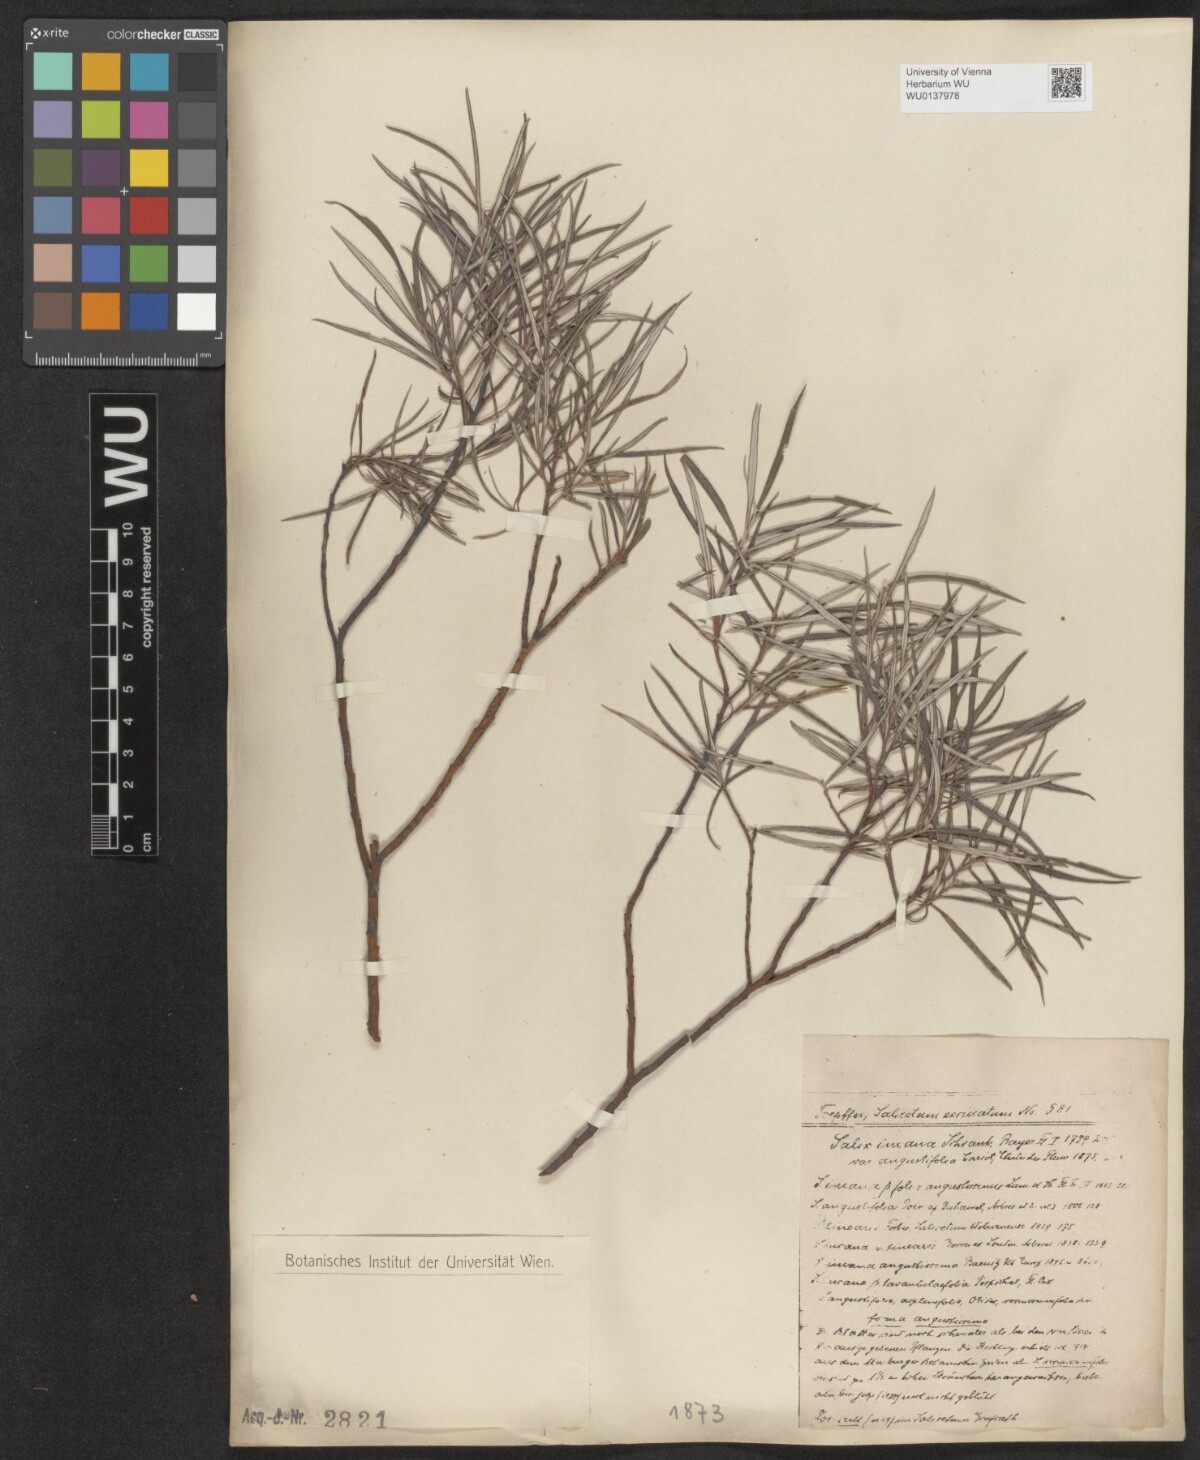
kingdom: Plantae
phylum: Tracheophyta
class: Magnoliopsida
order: Malpighiales
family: Salicaceae
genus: Salix
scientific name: Salix eleagnos
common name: Elaeagnus willow
